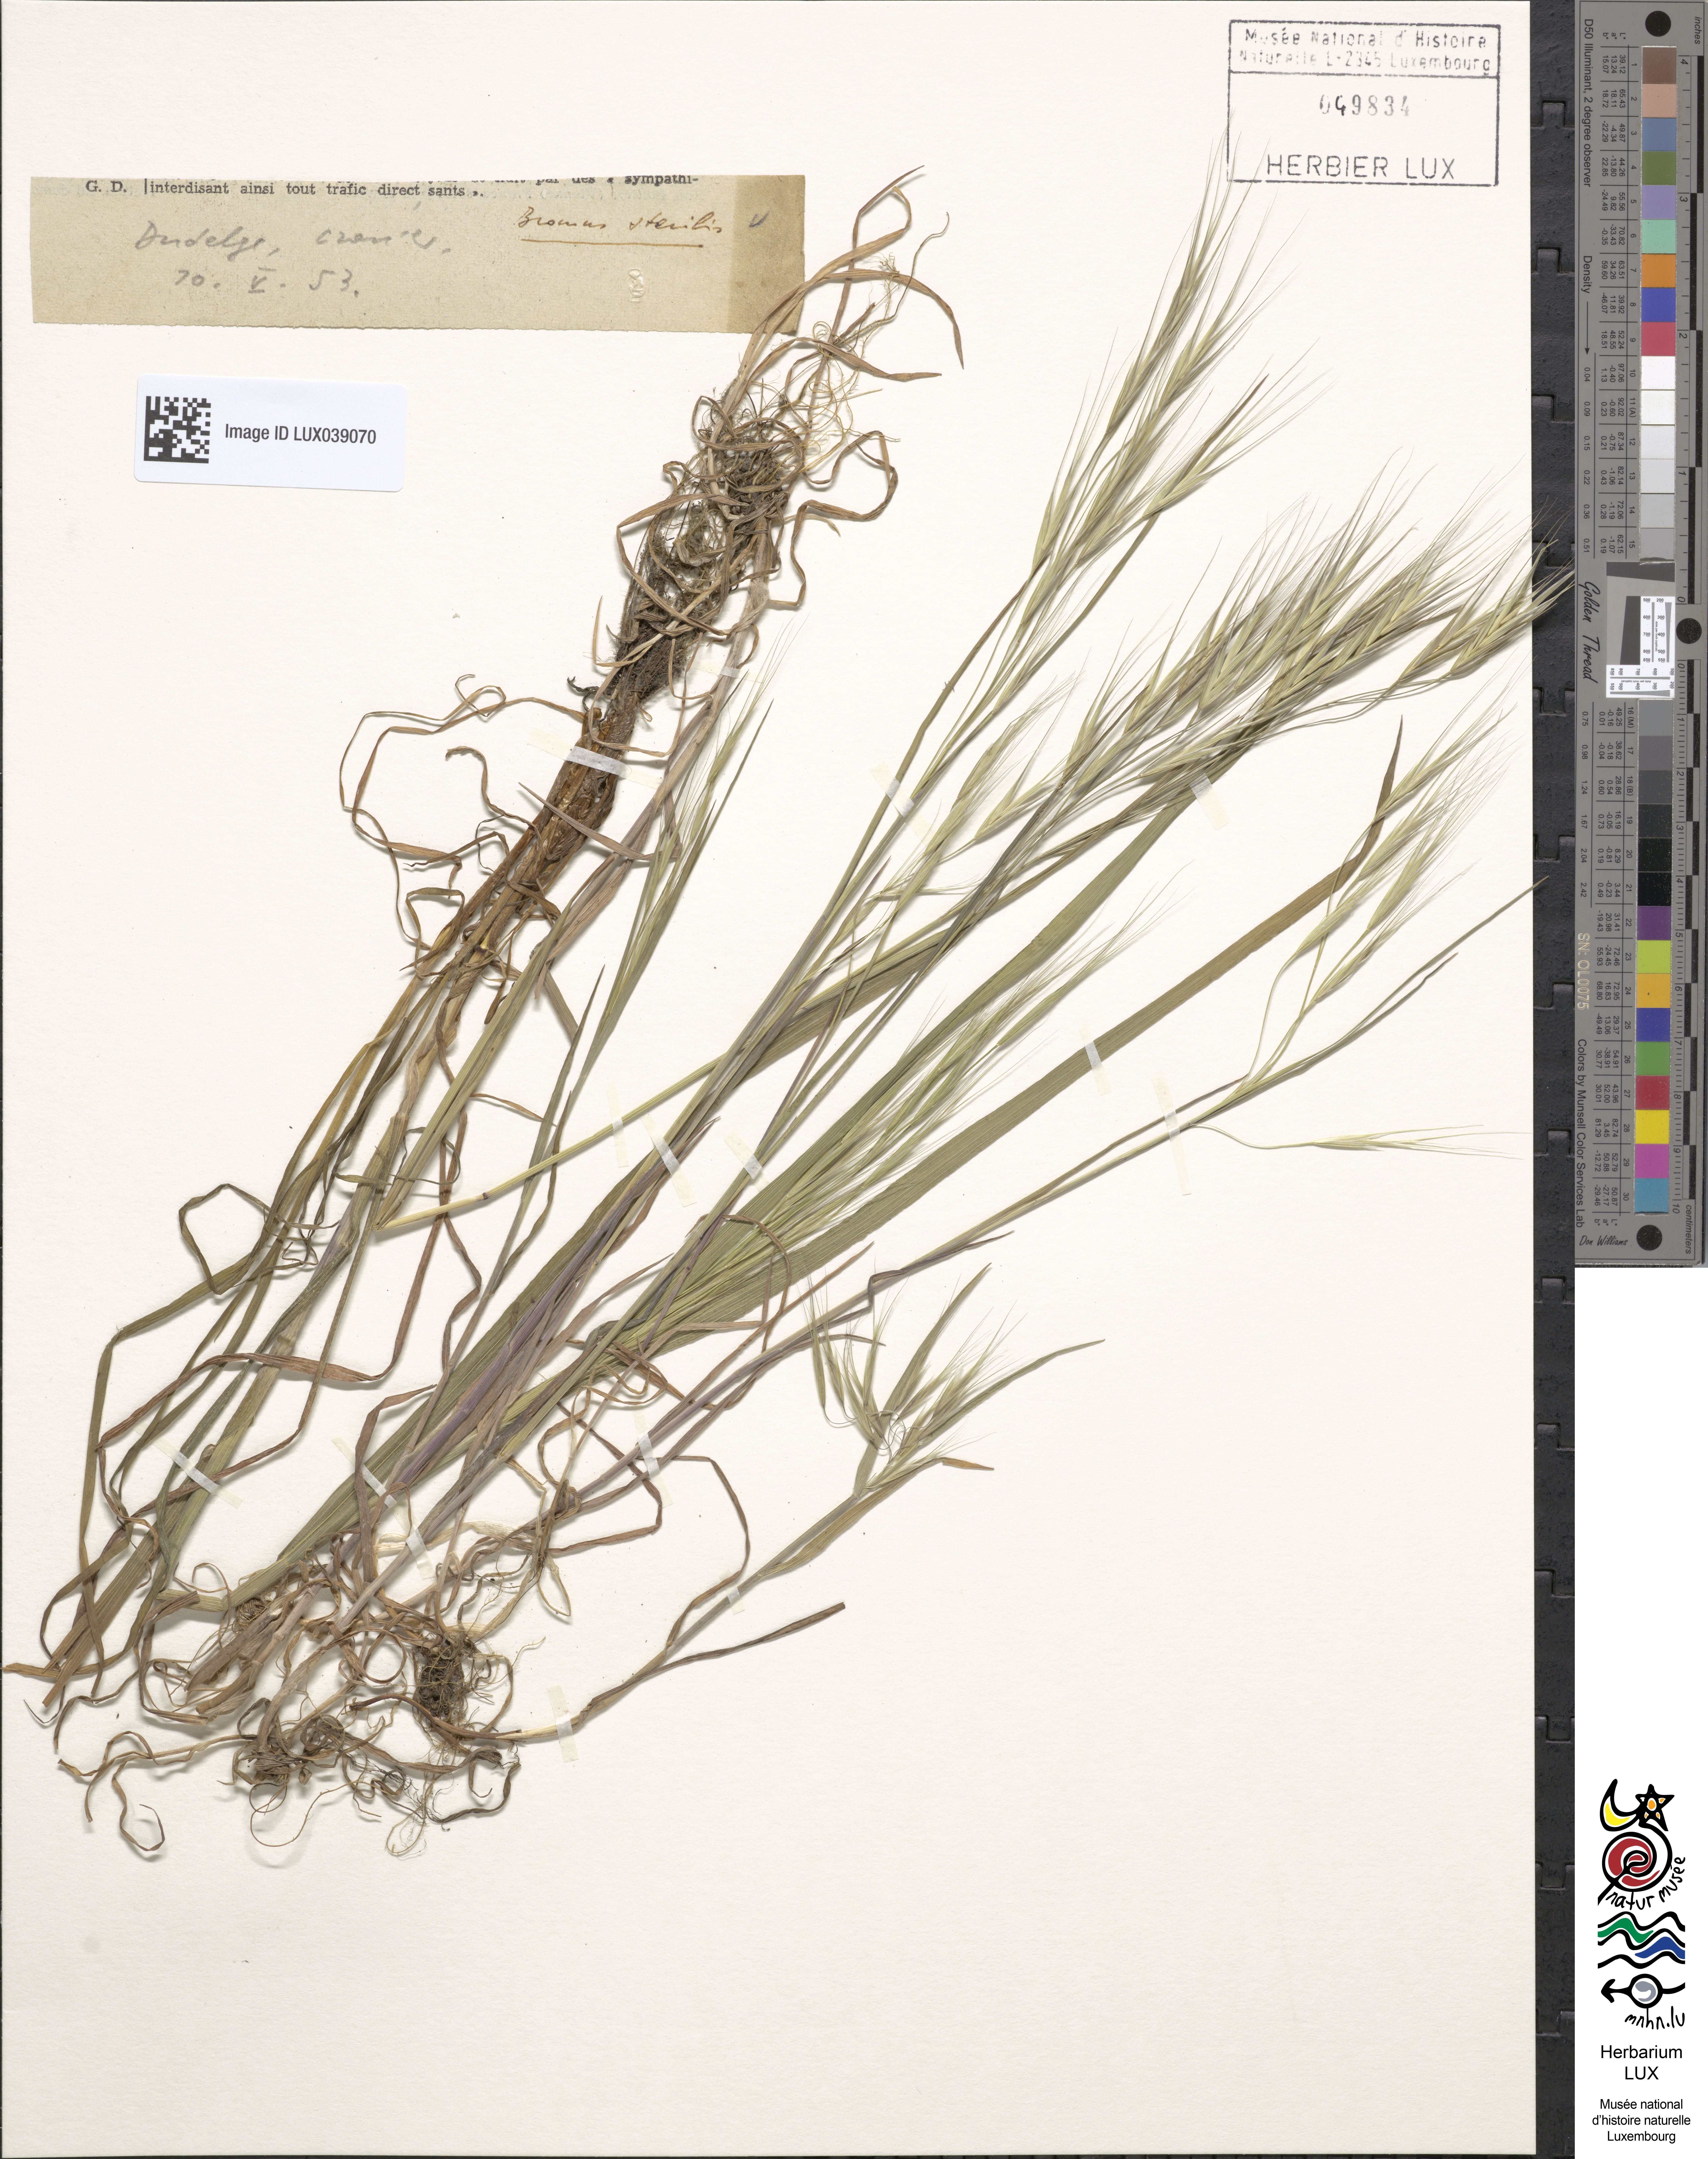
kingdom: Plantae
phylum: Tracheophyta
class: Liliopsida
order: Poales
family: Poaceae
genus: Bromus
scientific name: Bromus sterilis
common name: Poverty brome
